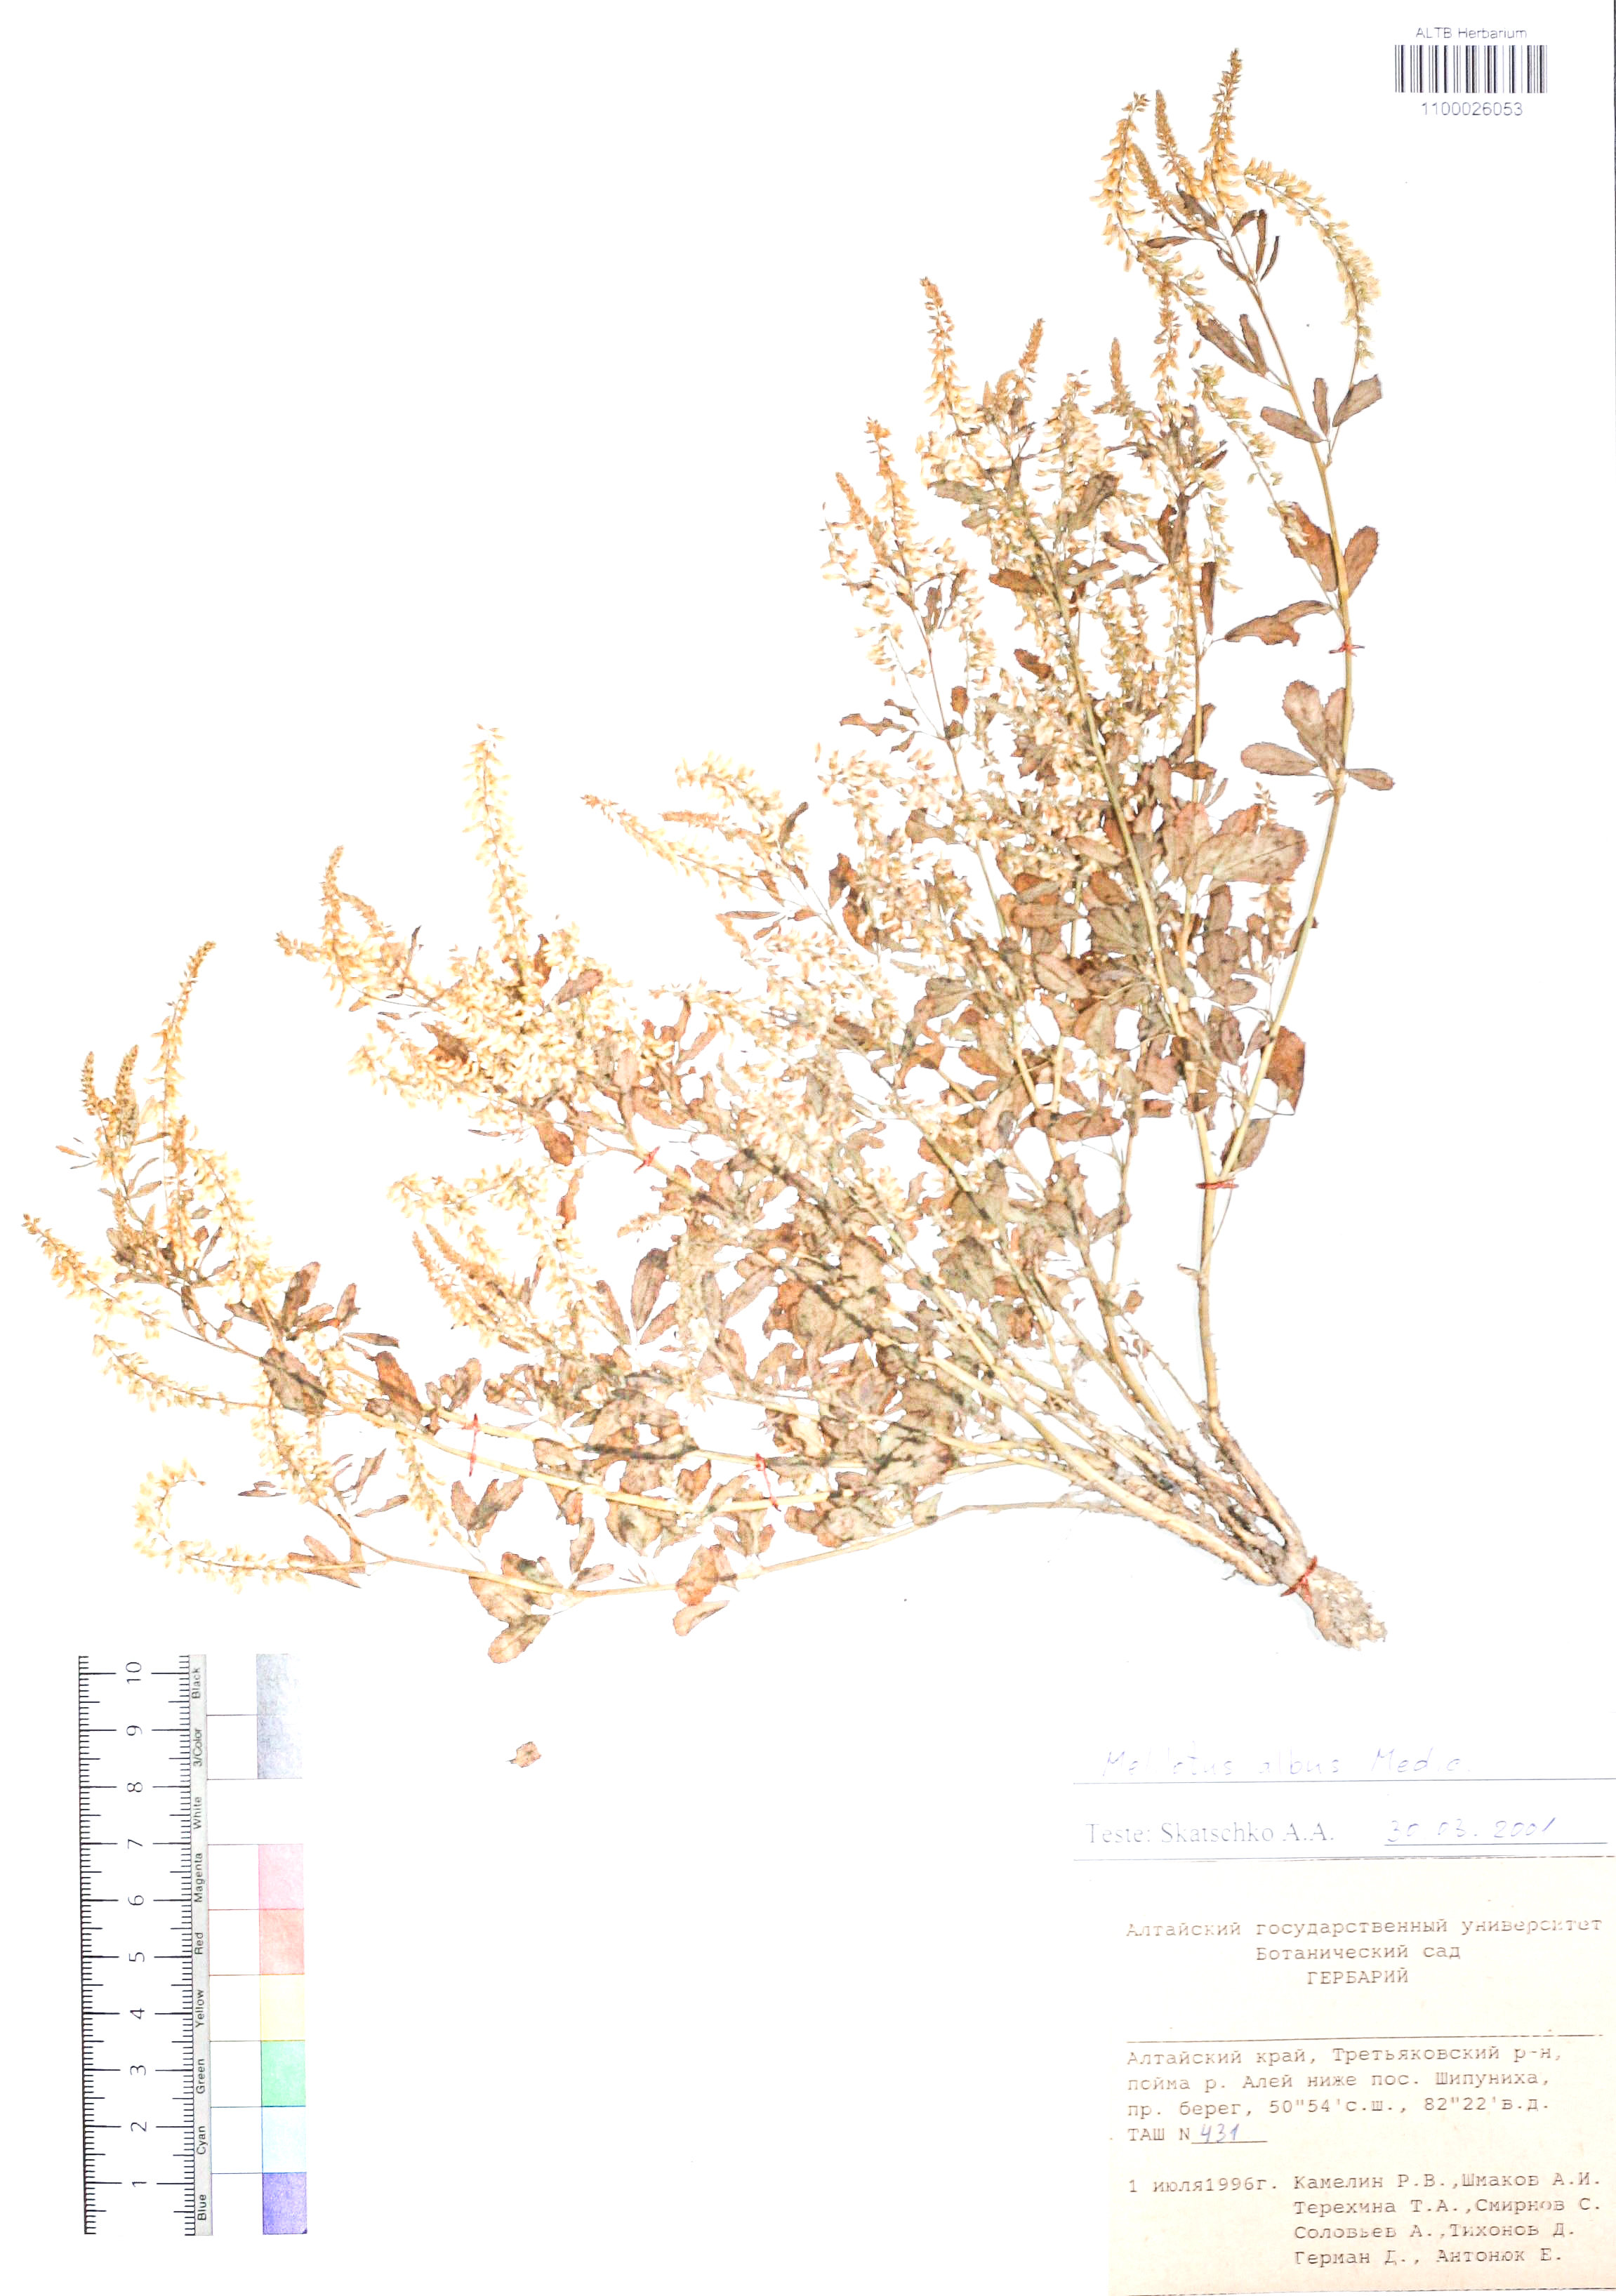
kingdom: Plantae
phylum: Tracheophyta
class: Magnoliopsida
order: Fabales
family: Fabaceae
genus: Melilotus
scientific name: Melilotus albus
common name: White melilot
